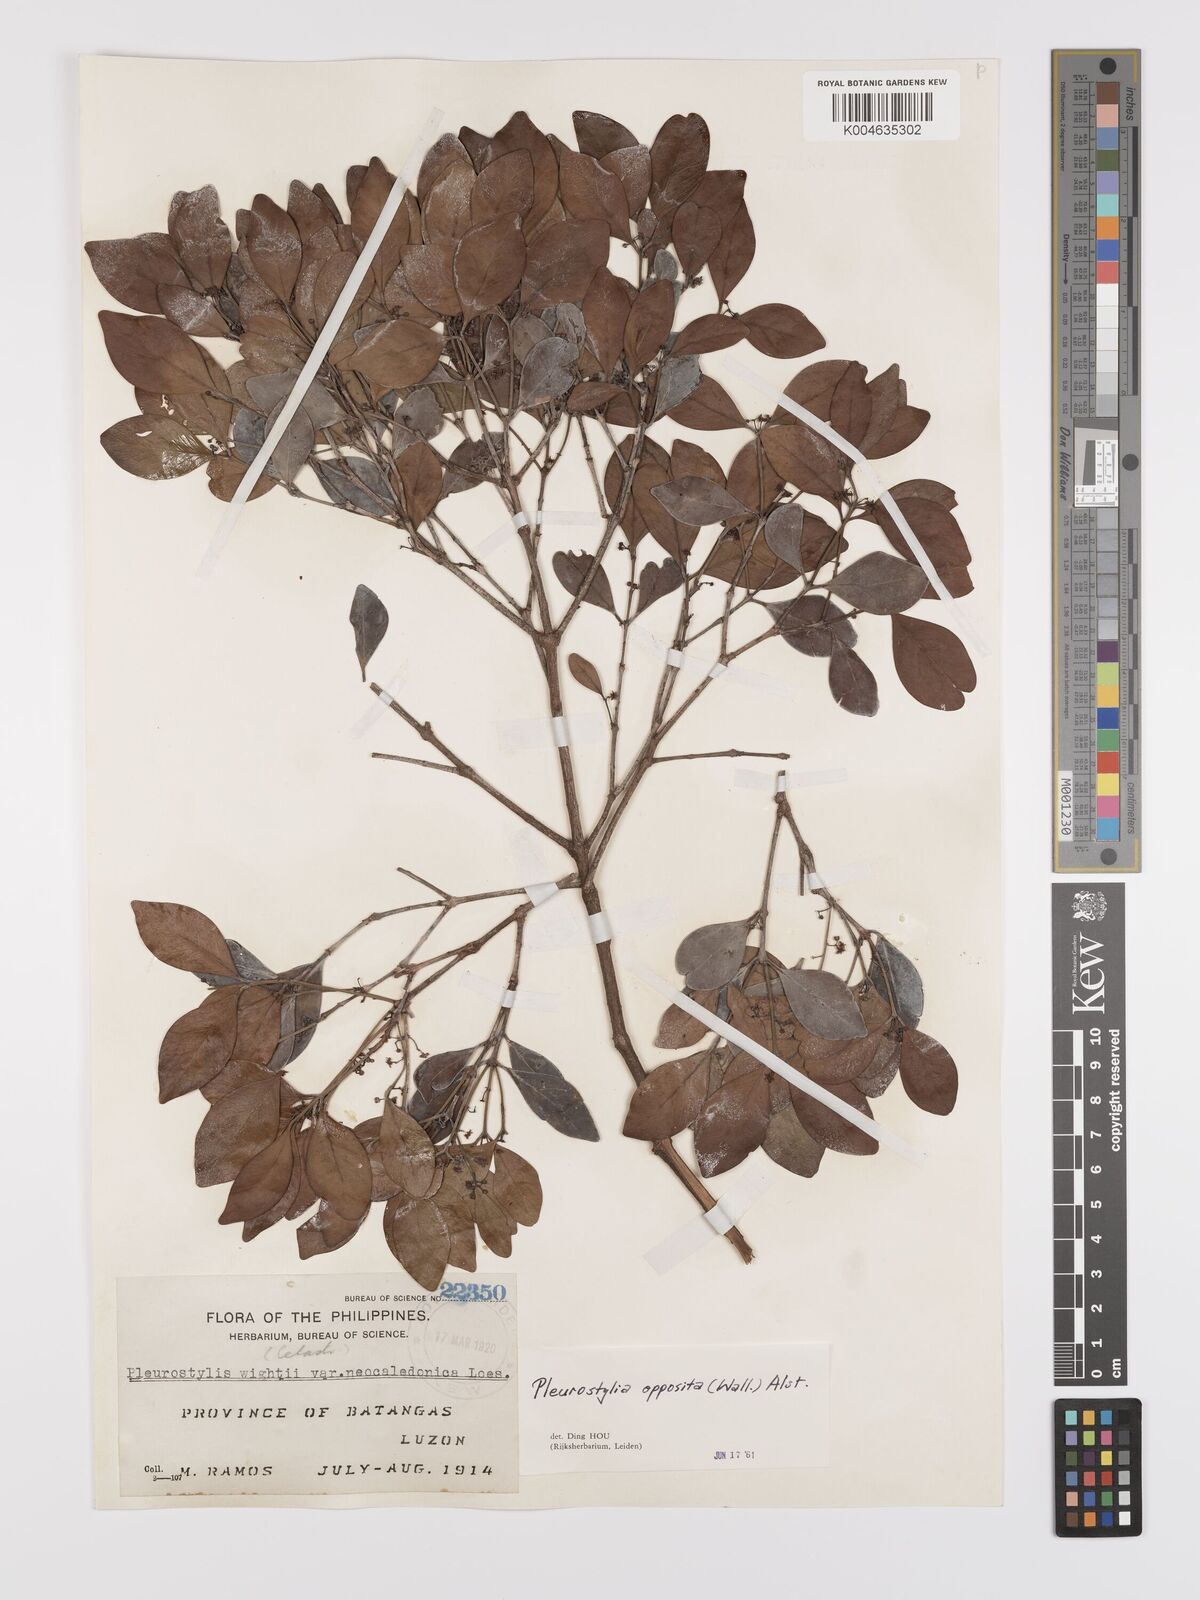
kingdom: Plantae
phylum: Tracheophyta
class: Magnoliopsida
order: Celastrales
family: Celastraceae
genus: Pleurostylia
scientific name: Pleurostylia opposita
